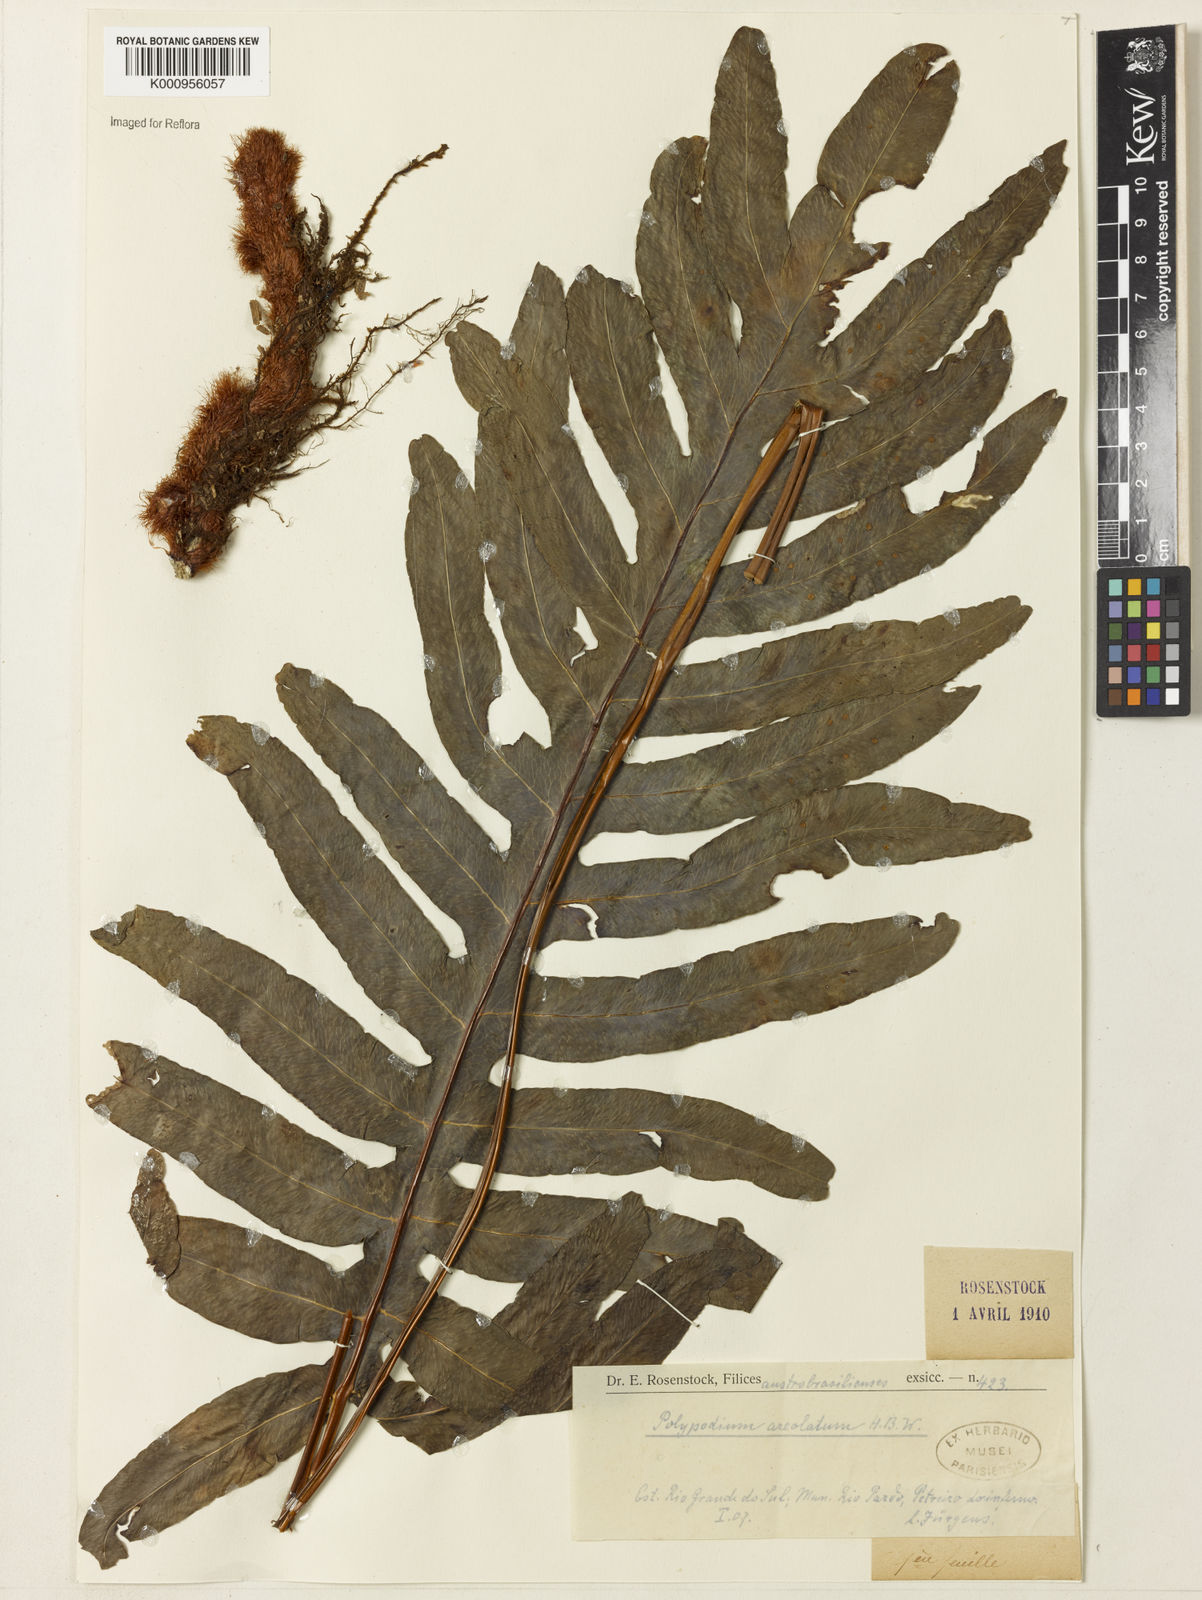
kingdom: Plantae
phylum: Tracheophyta
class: Polypodiopsida
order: Polypodiales
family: Polypodiaceae
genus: Phlebodium
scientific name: Phlebodium aureum
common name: Gold-foot fern
